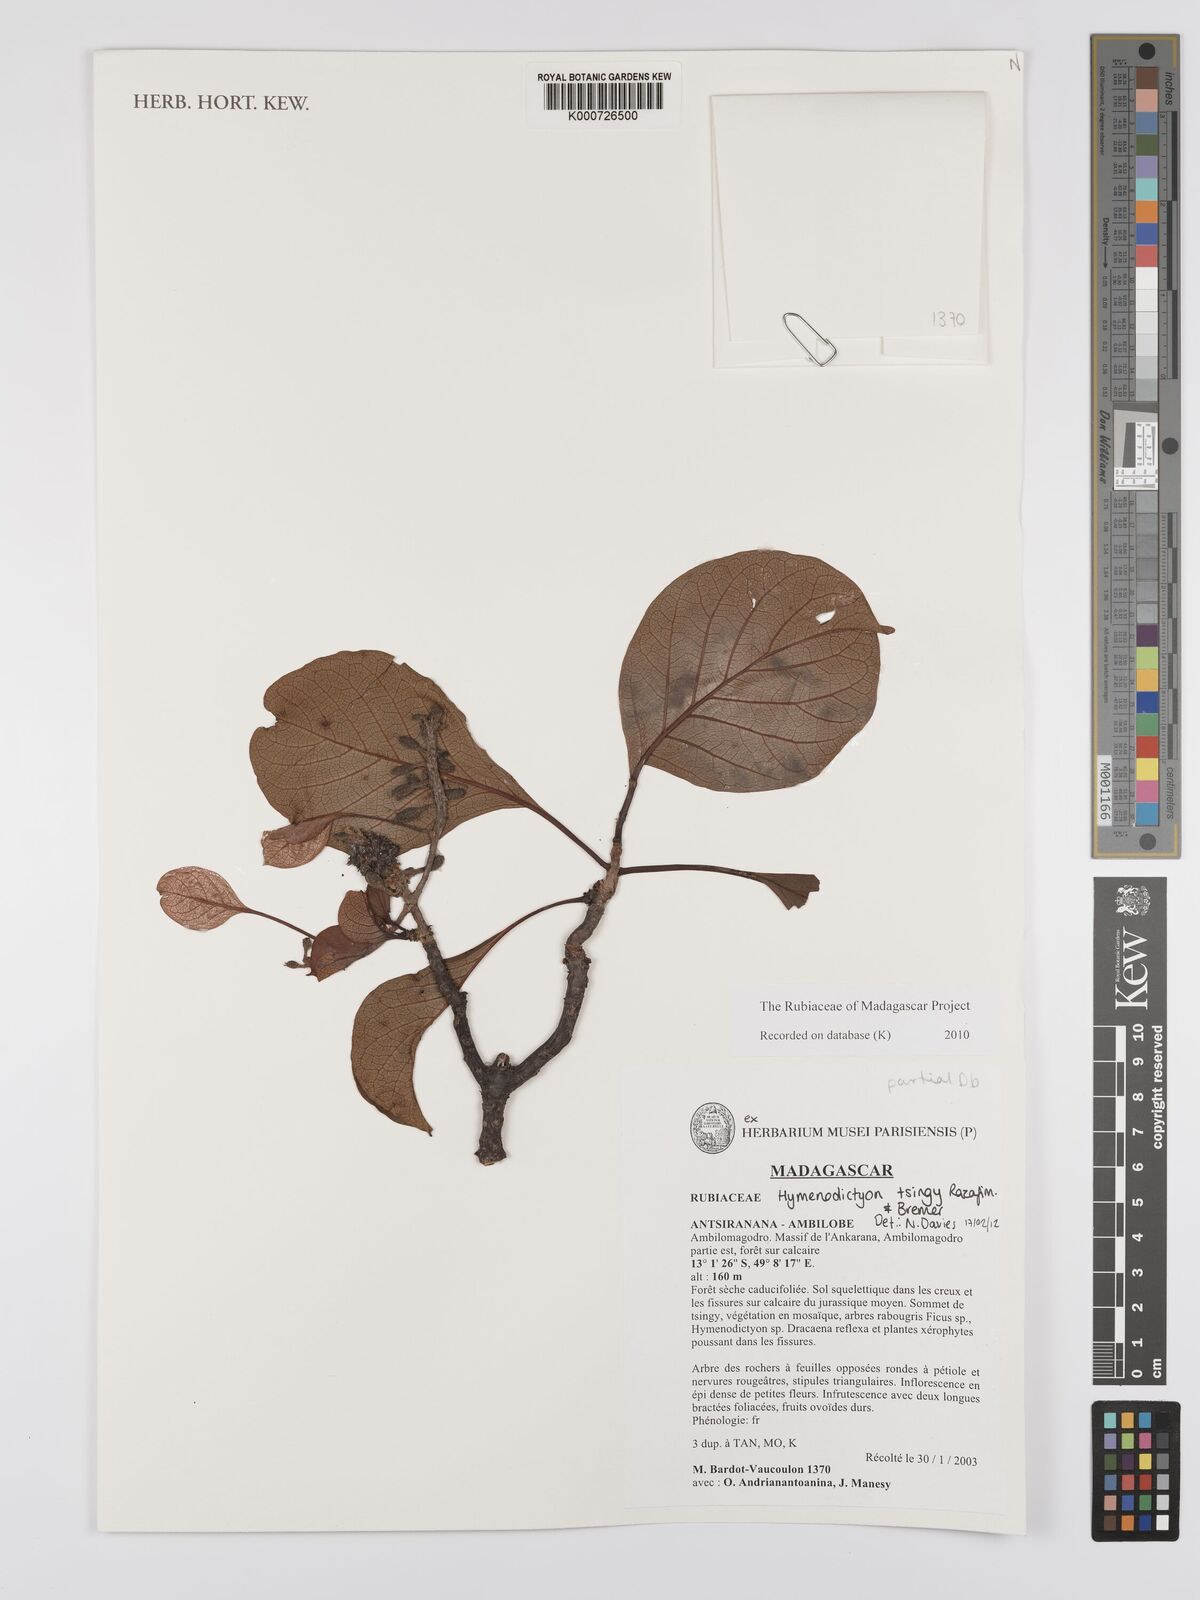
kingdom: Plantae
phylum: Tracheophyta
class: Magnoliopsida
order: Gentianales
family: Rubiaceae
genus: Hymenodictyon
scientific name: Hymenodictyon tsingy
